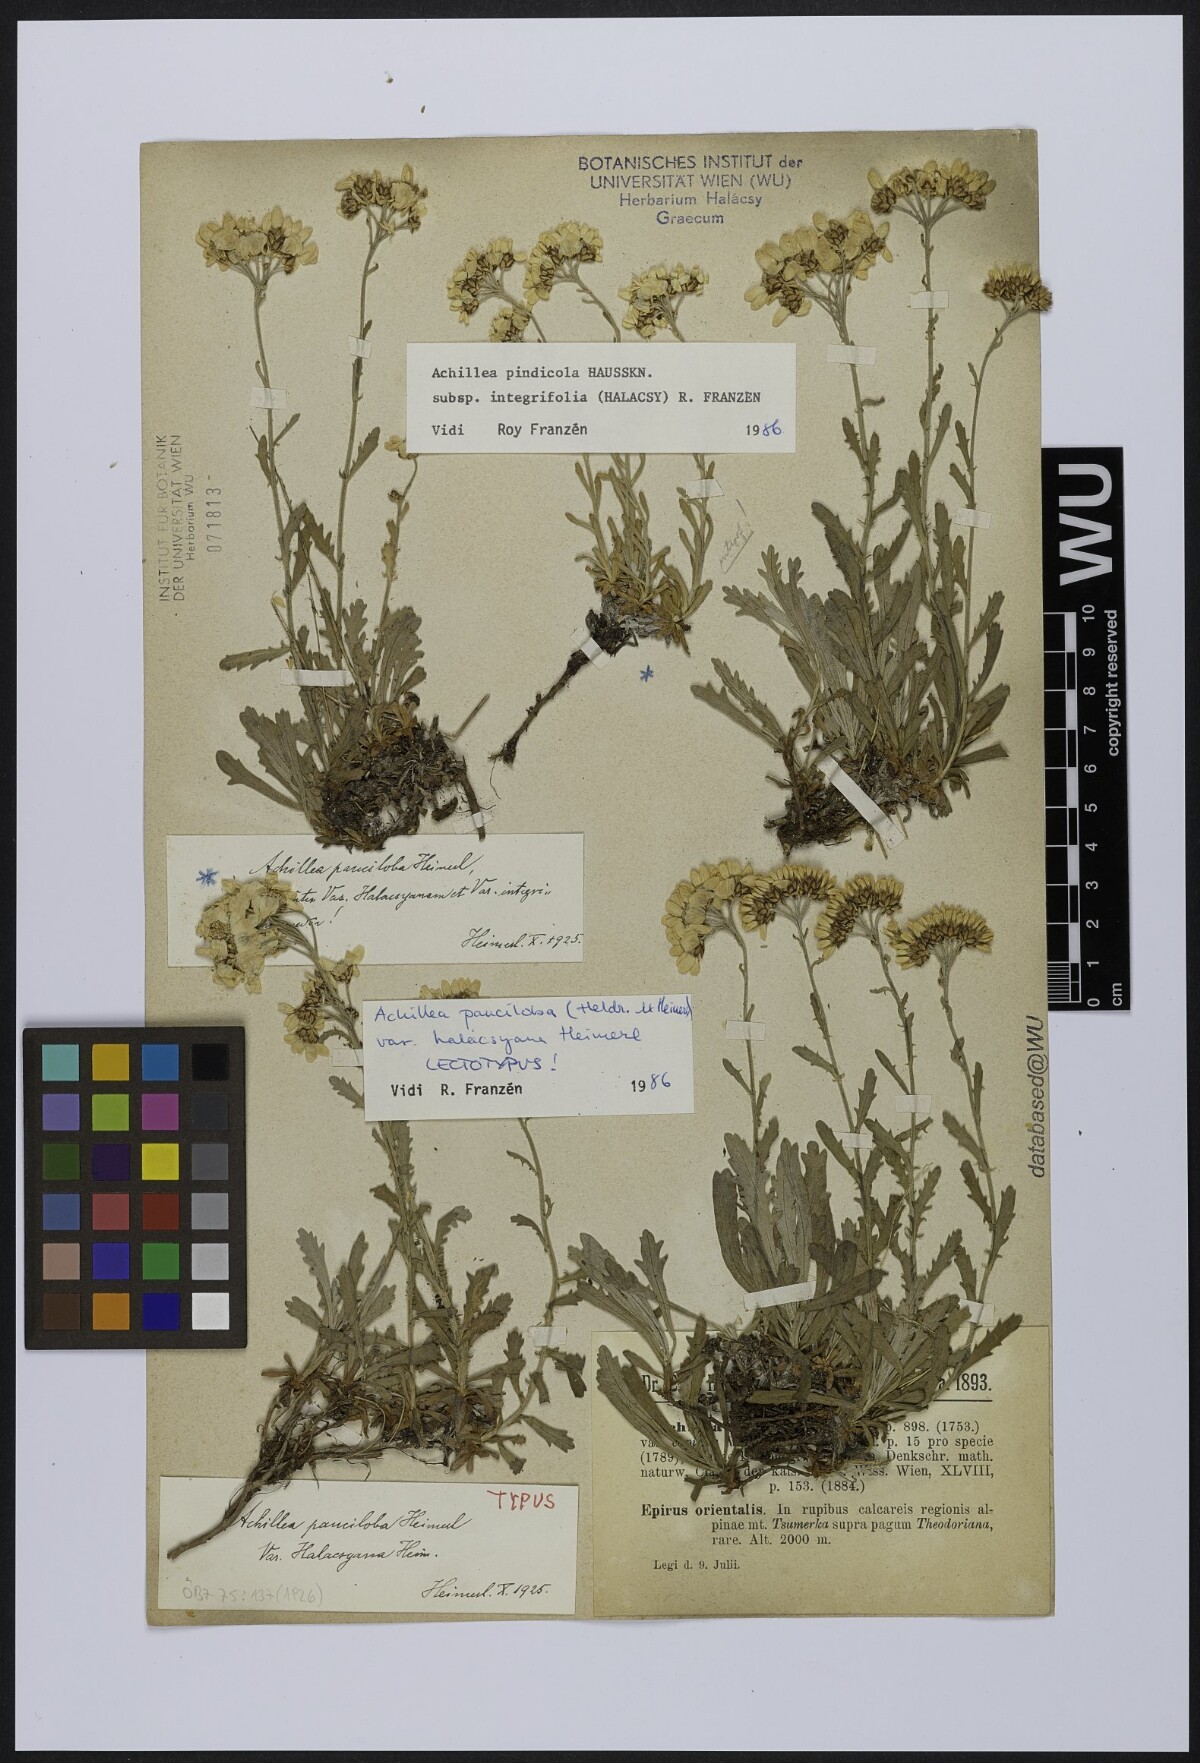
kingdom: Plantae
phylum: Tracheophyta
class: Magnoliopsida
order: Asterales
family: Asteraceae
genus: Achillea
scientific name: Achillea pindicola
